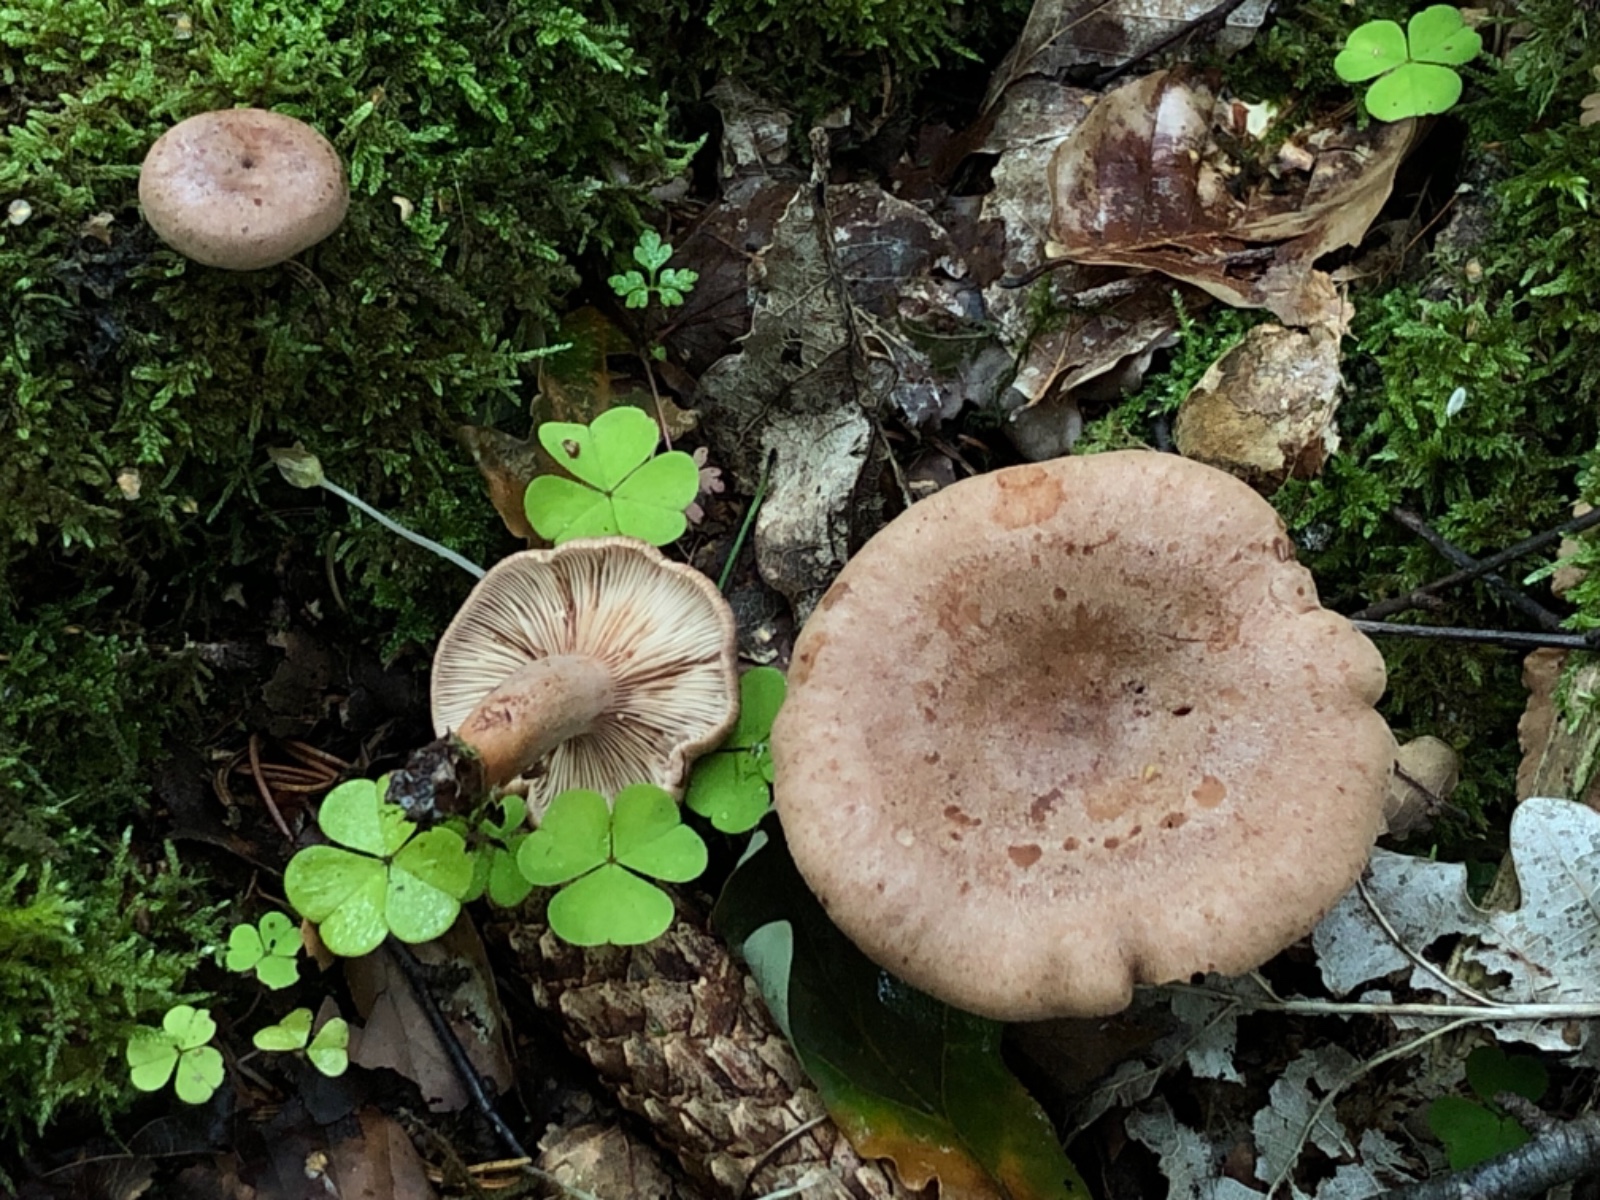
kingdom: Fungi
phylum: Basidiomycota
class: Agaricomycetes
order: Russulales
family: Russulaceae
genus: Lactarius
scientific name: Lactarius pyrogalus
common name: hassel-mælkehat
